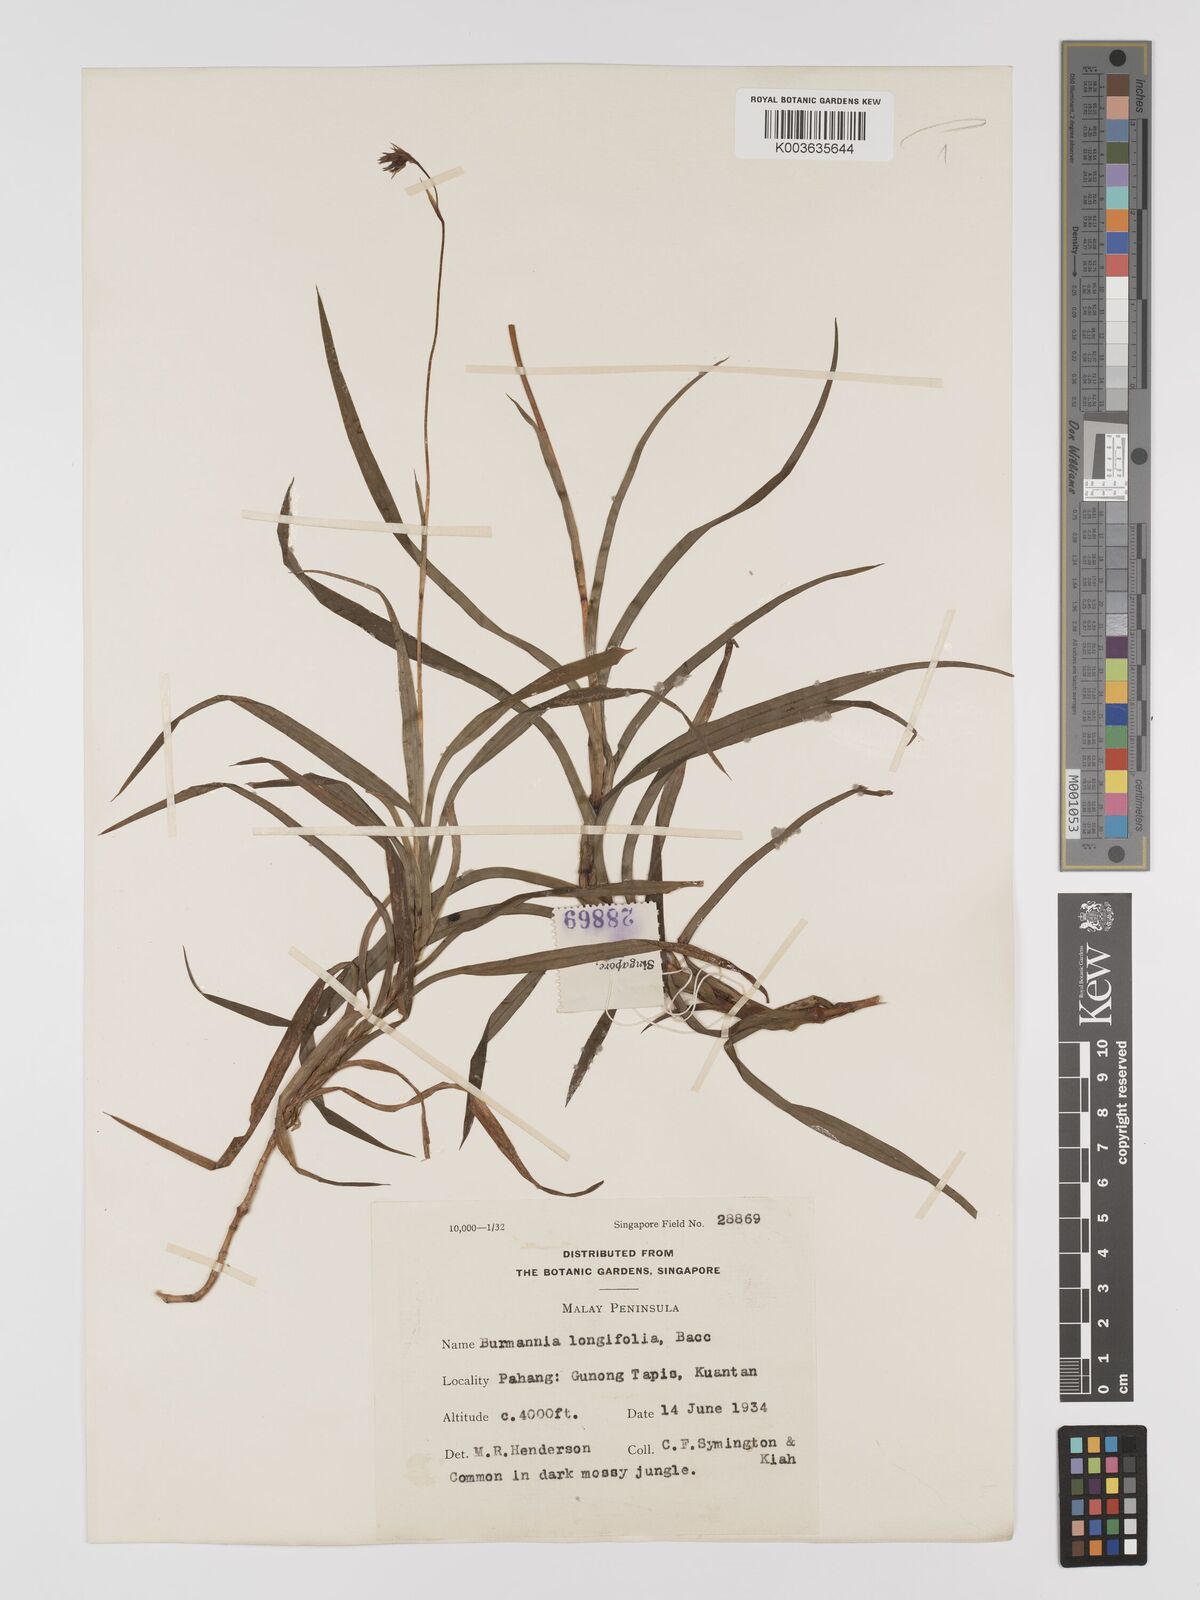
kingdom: Plantae
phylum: Tracheophyta
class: Liliopsida
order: Dioscoreales
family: Burmanniaceae
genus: Burmannia
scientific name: Burmannia longifolia
